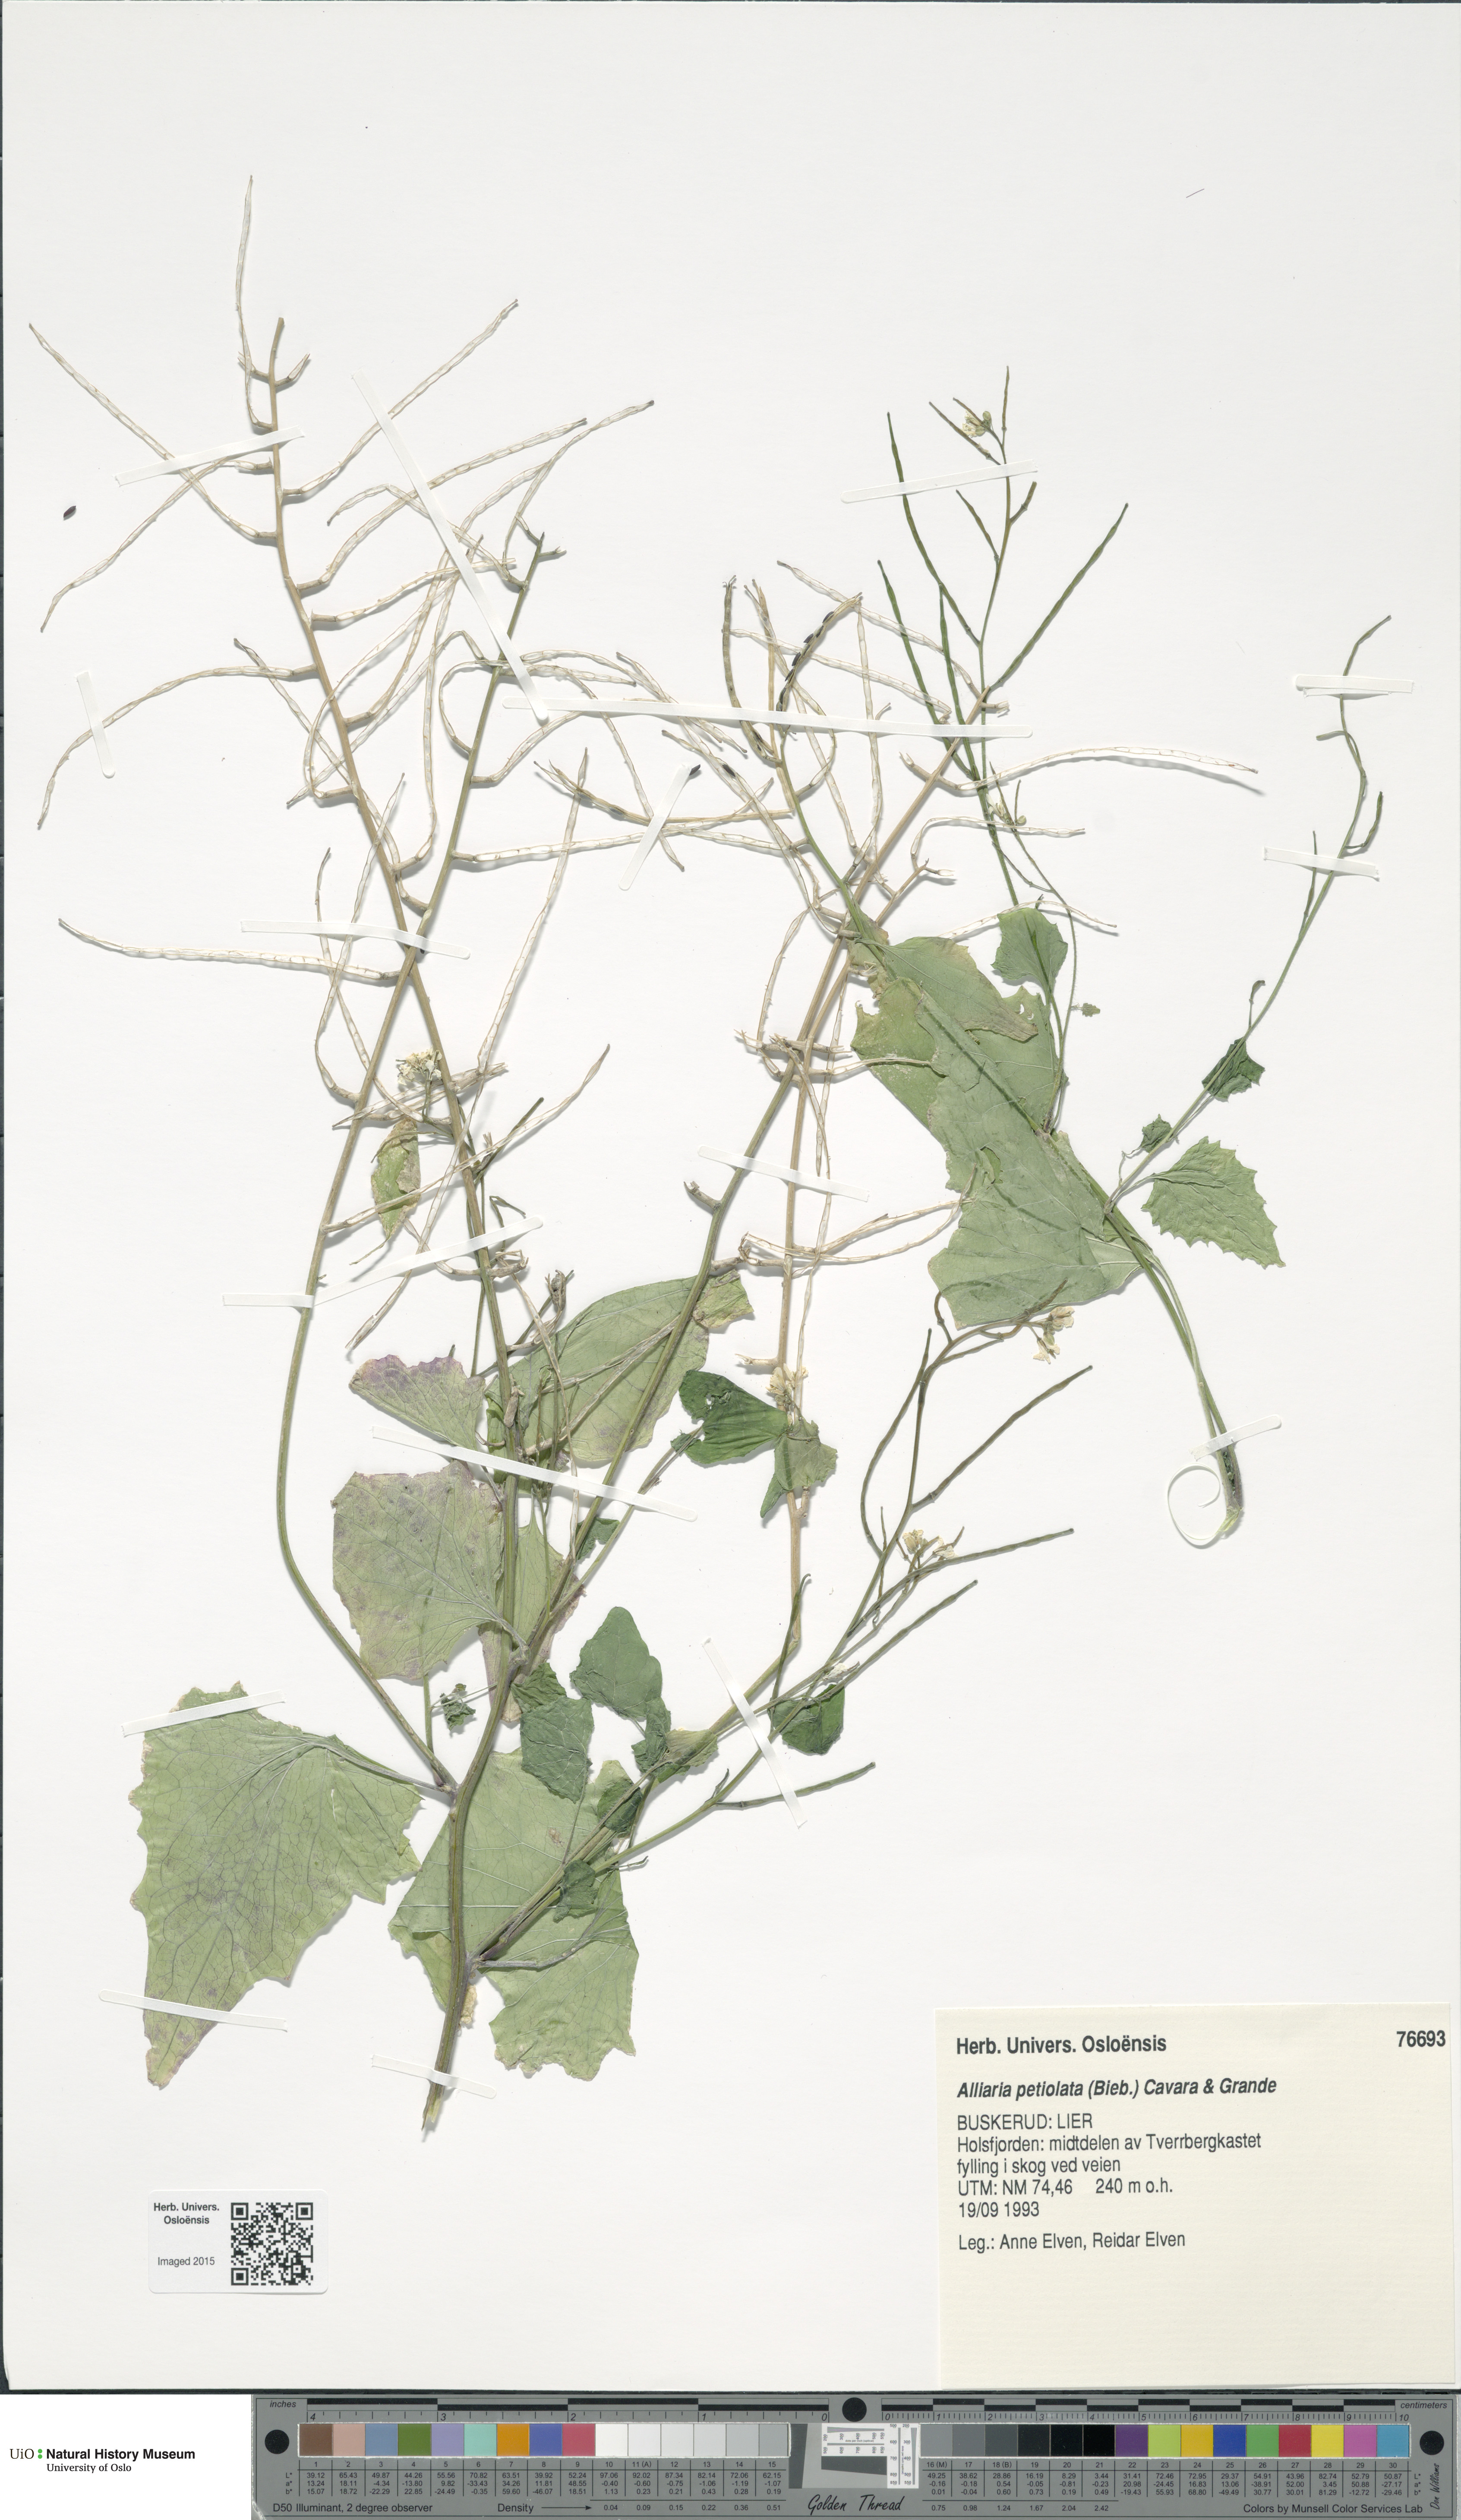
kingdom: Plantae
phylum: Tracheophyta
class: Magnoliopsida
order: Brassicales
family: Brassicaceae
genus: Alliaria
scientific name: Alliaria petiolata
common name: Garlic mustard
